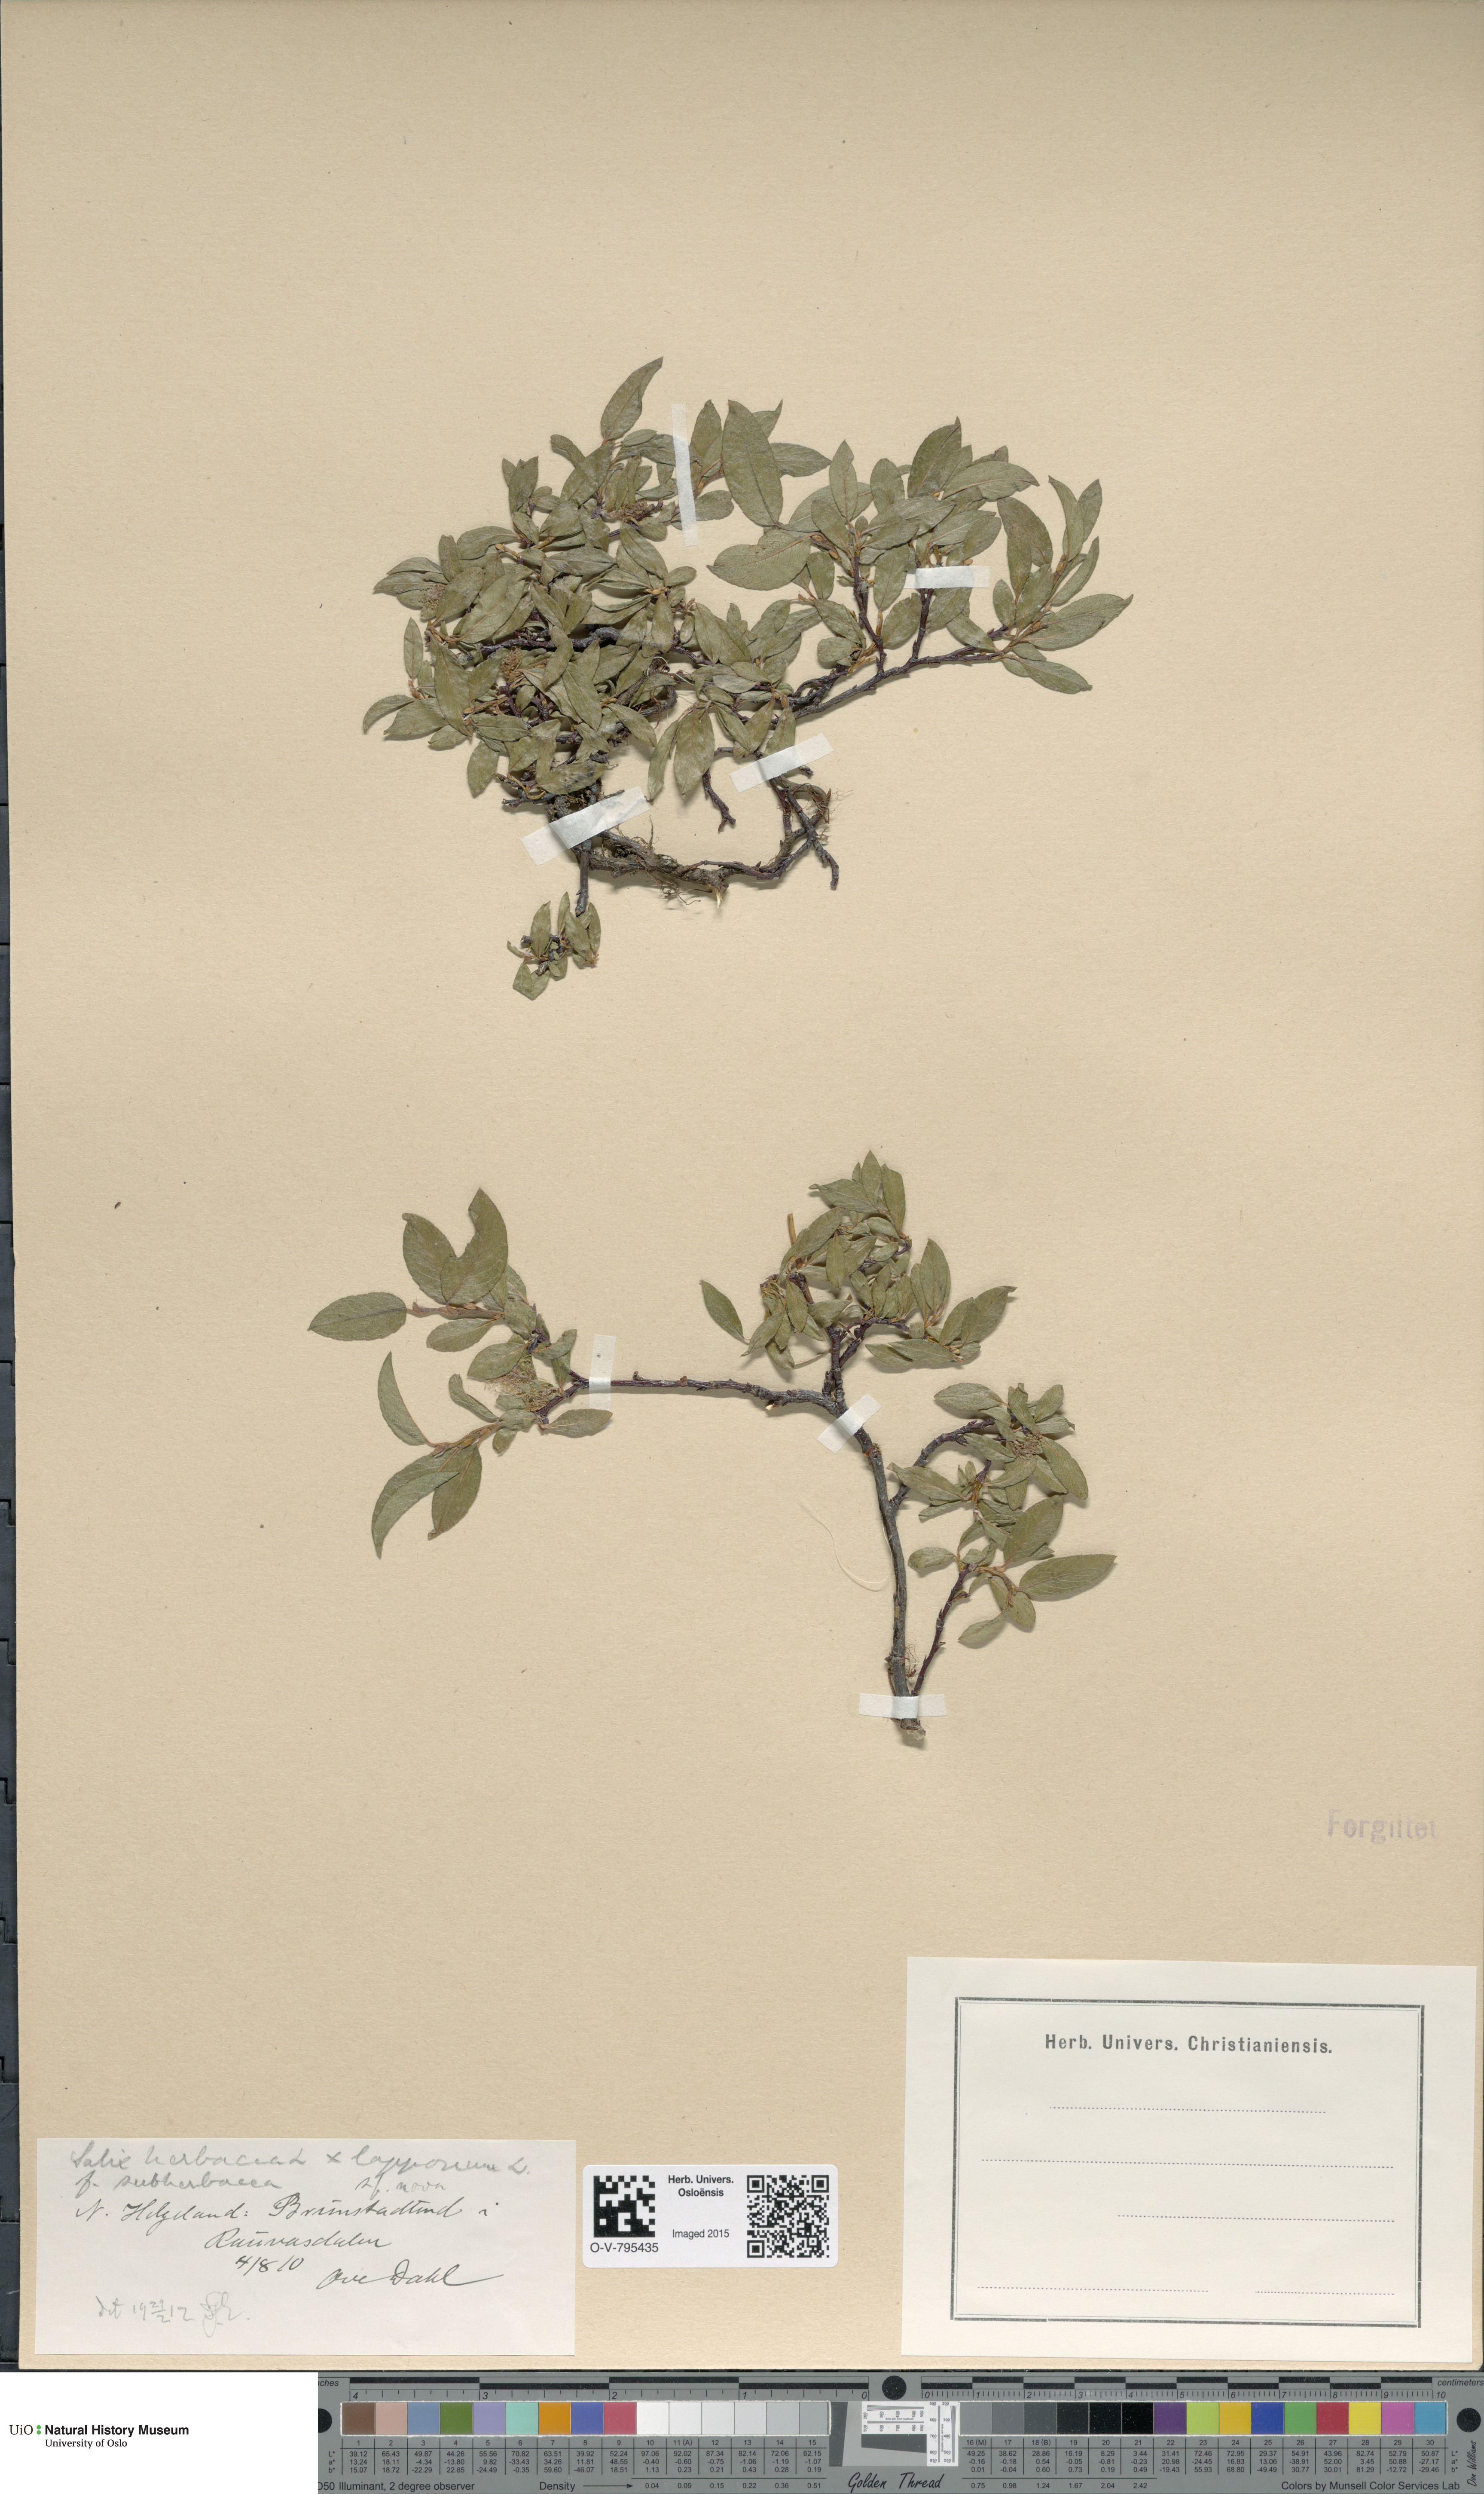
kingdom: Plantae
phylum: Tracheophyta
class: Magnoliopsida
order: Malpighiales
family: Salicaceae
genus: Salix
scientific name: Salix
